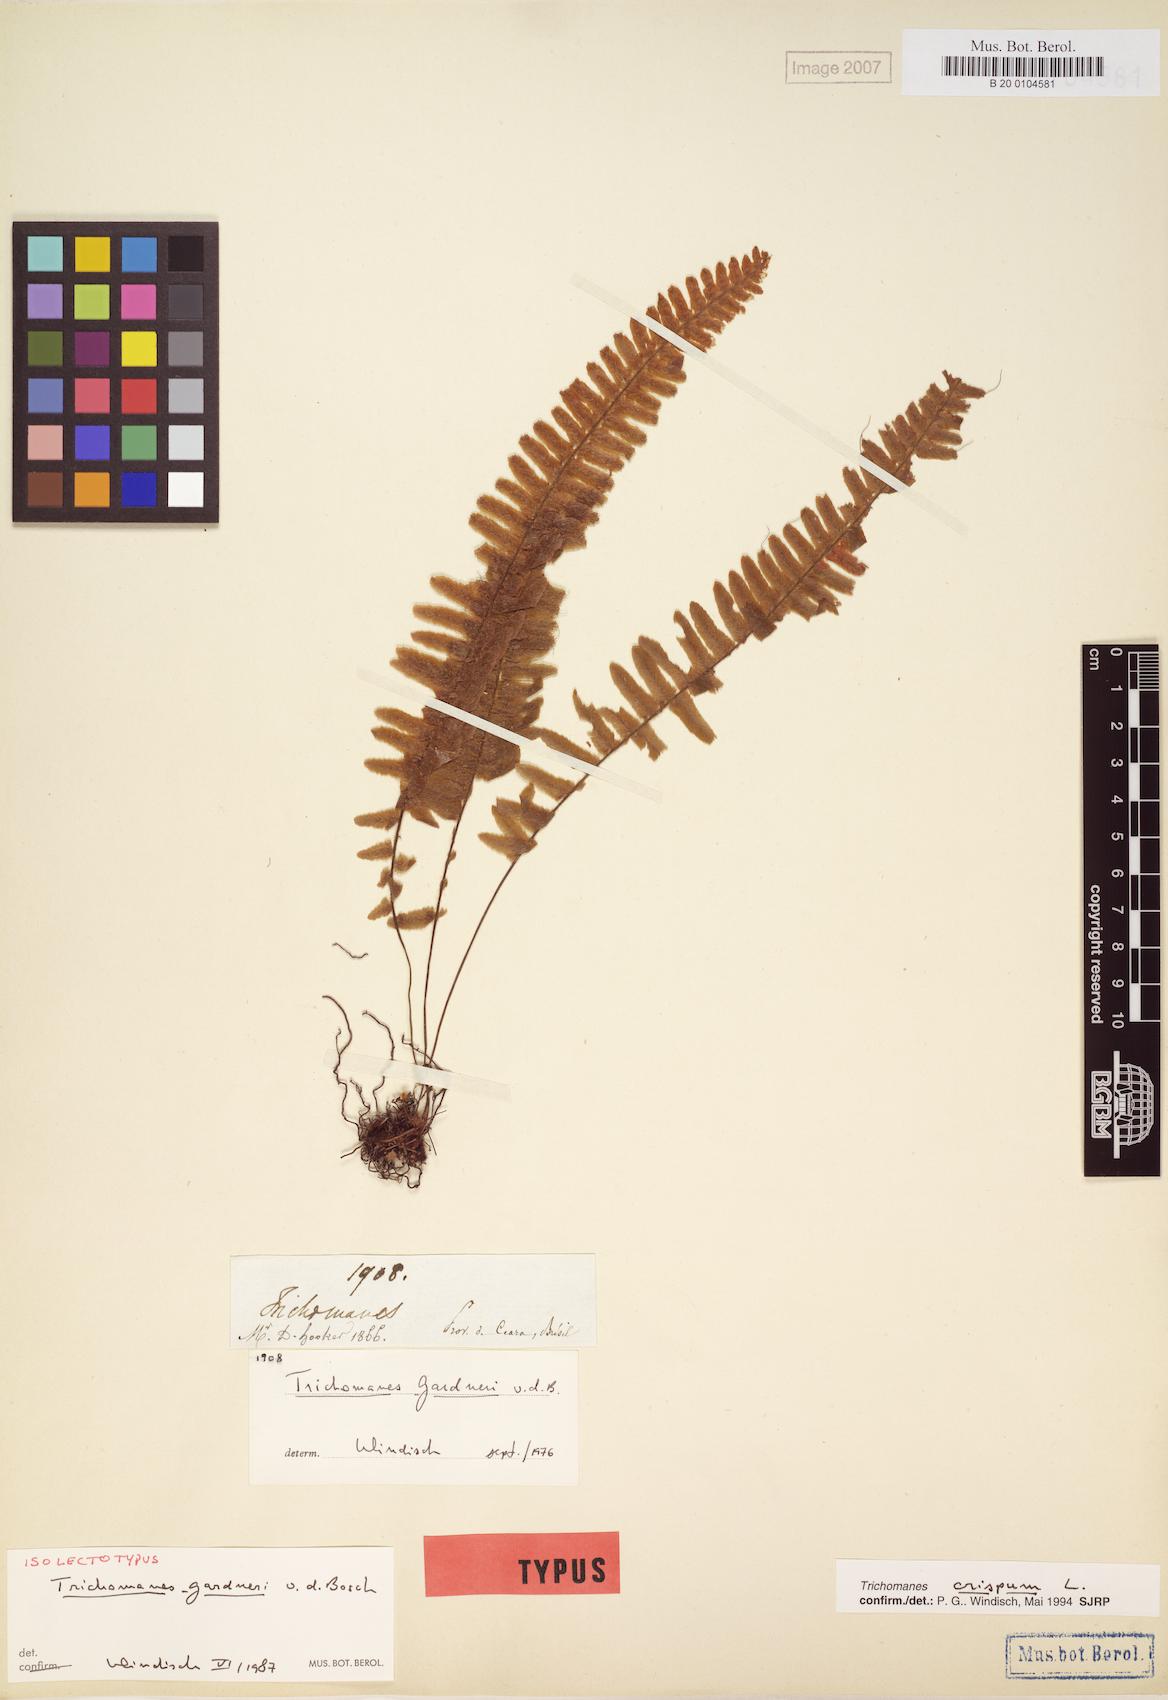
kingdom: Plantae
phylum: Tracheophyta
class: Polypodiopsida
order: Hymenophyllales
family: Hymenophyllaceae
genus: Trichomanes
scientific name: Trichomanes crispum
